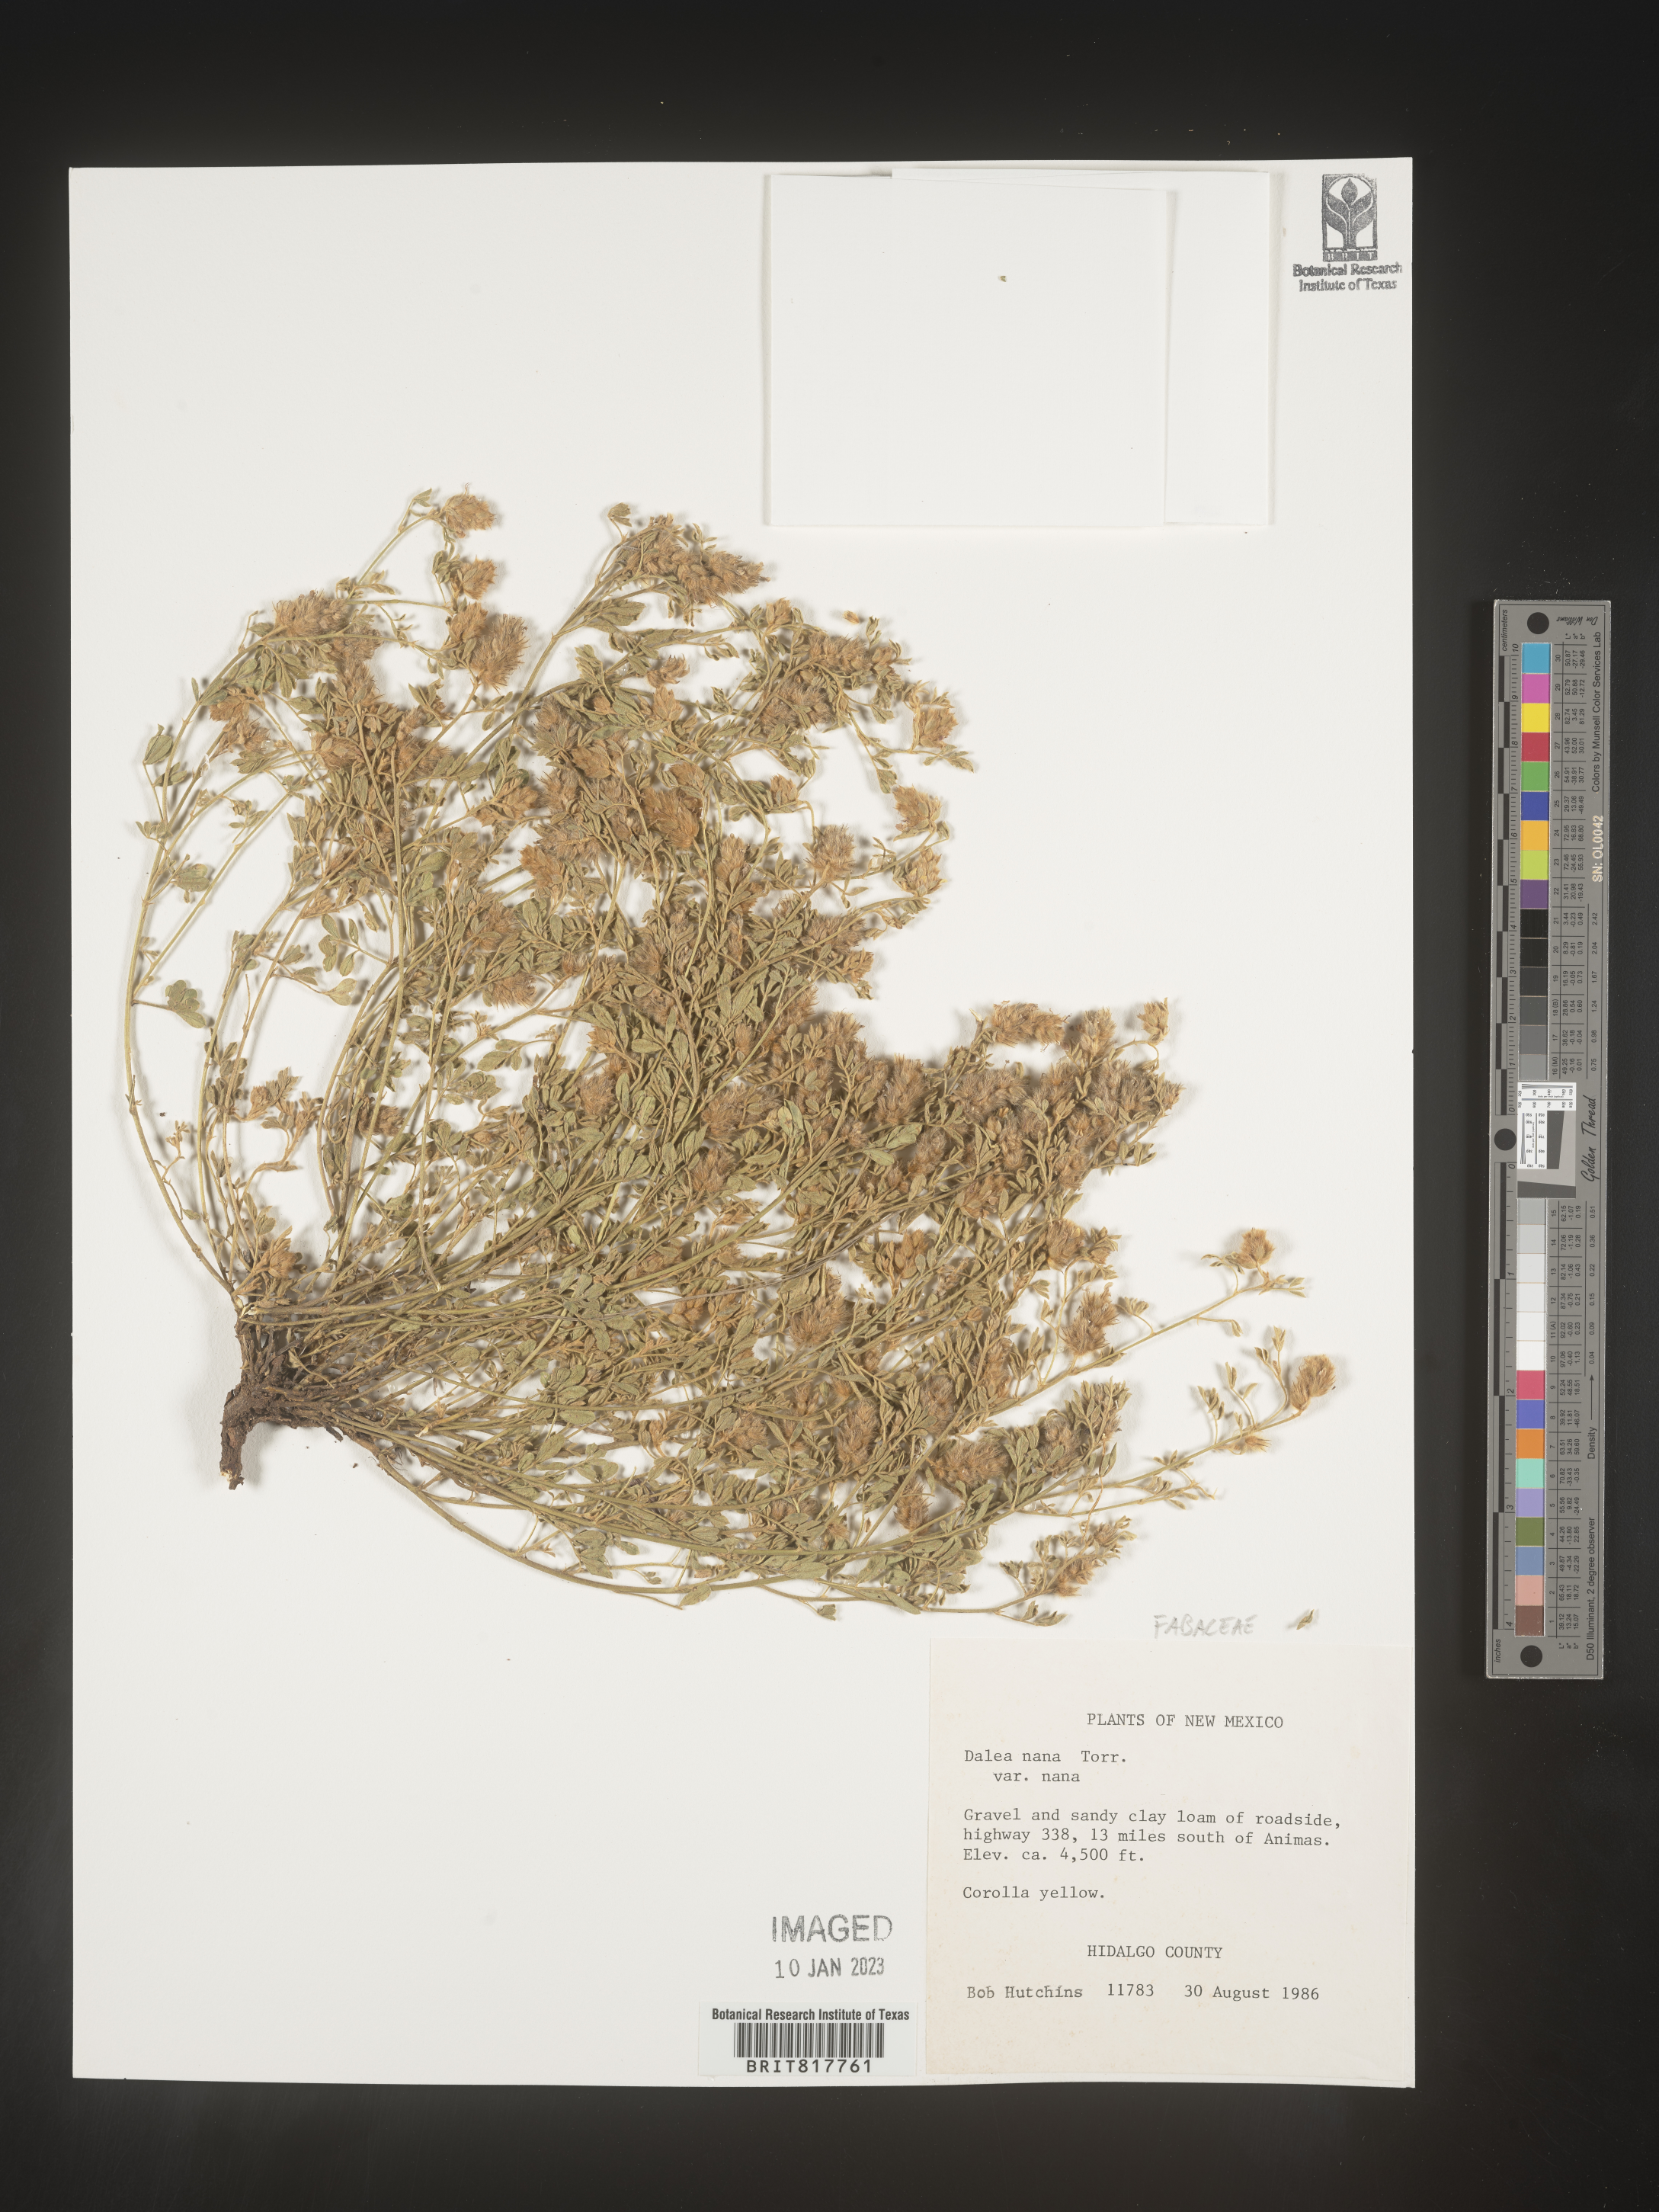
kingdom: Plantae
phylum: Tracheophyta
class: Magnoliopsida
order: Fabales
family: Fabaceae
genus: Dalea
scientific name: Dalea nana
